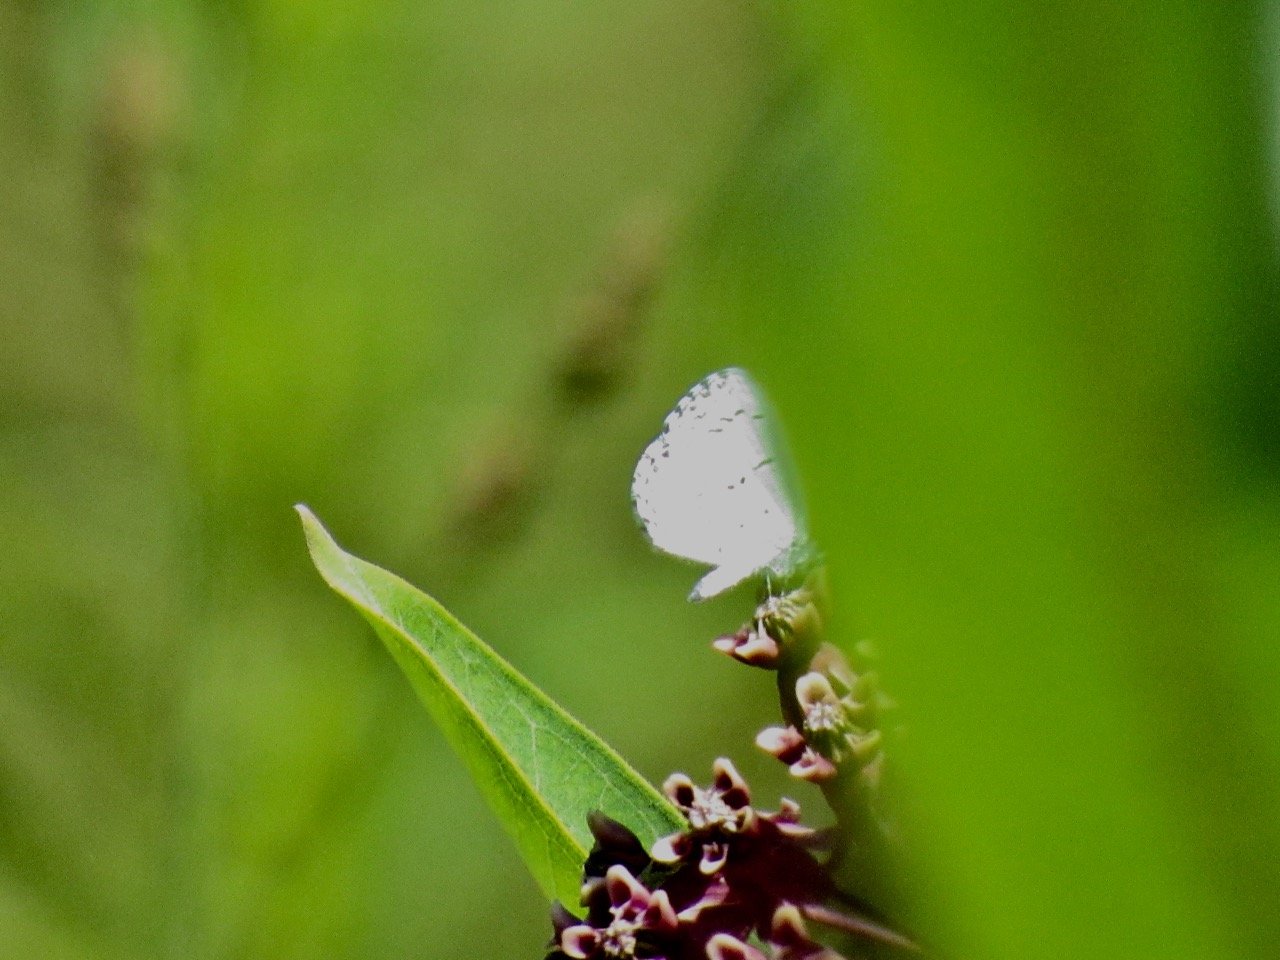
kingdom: Animalia
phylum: Arthropoda
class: Insecta
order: Lepidoptera
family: Lycaenidae
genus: Celastrina
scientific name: Celastrina
